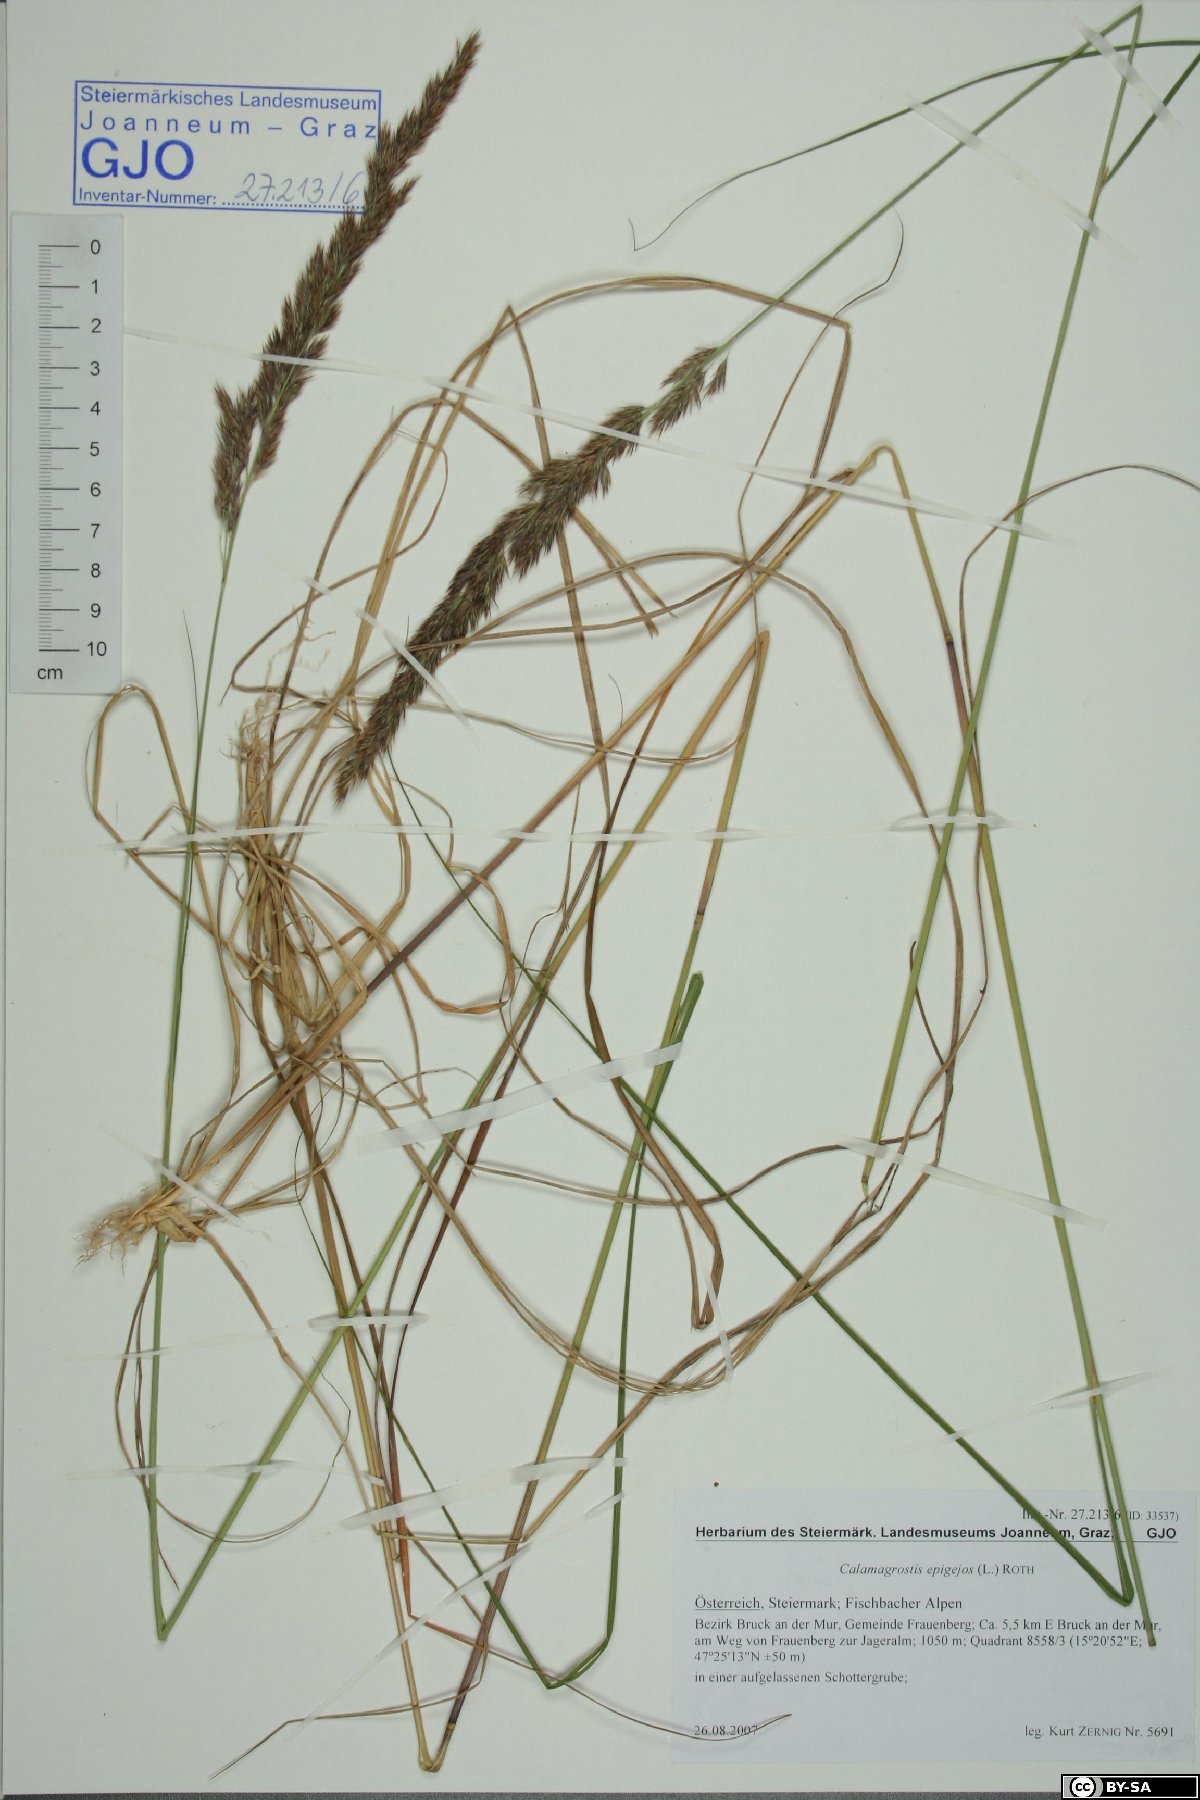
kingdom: Plantae
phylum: Tracheophyta
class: Liliopsida
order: Poales
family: Poaceae
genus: Calamagrostis
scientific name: Calamagrostis epigejos
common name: Wood small-reed
